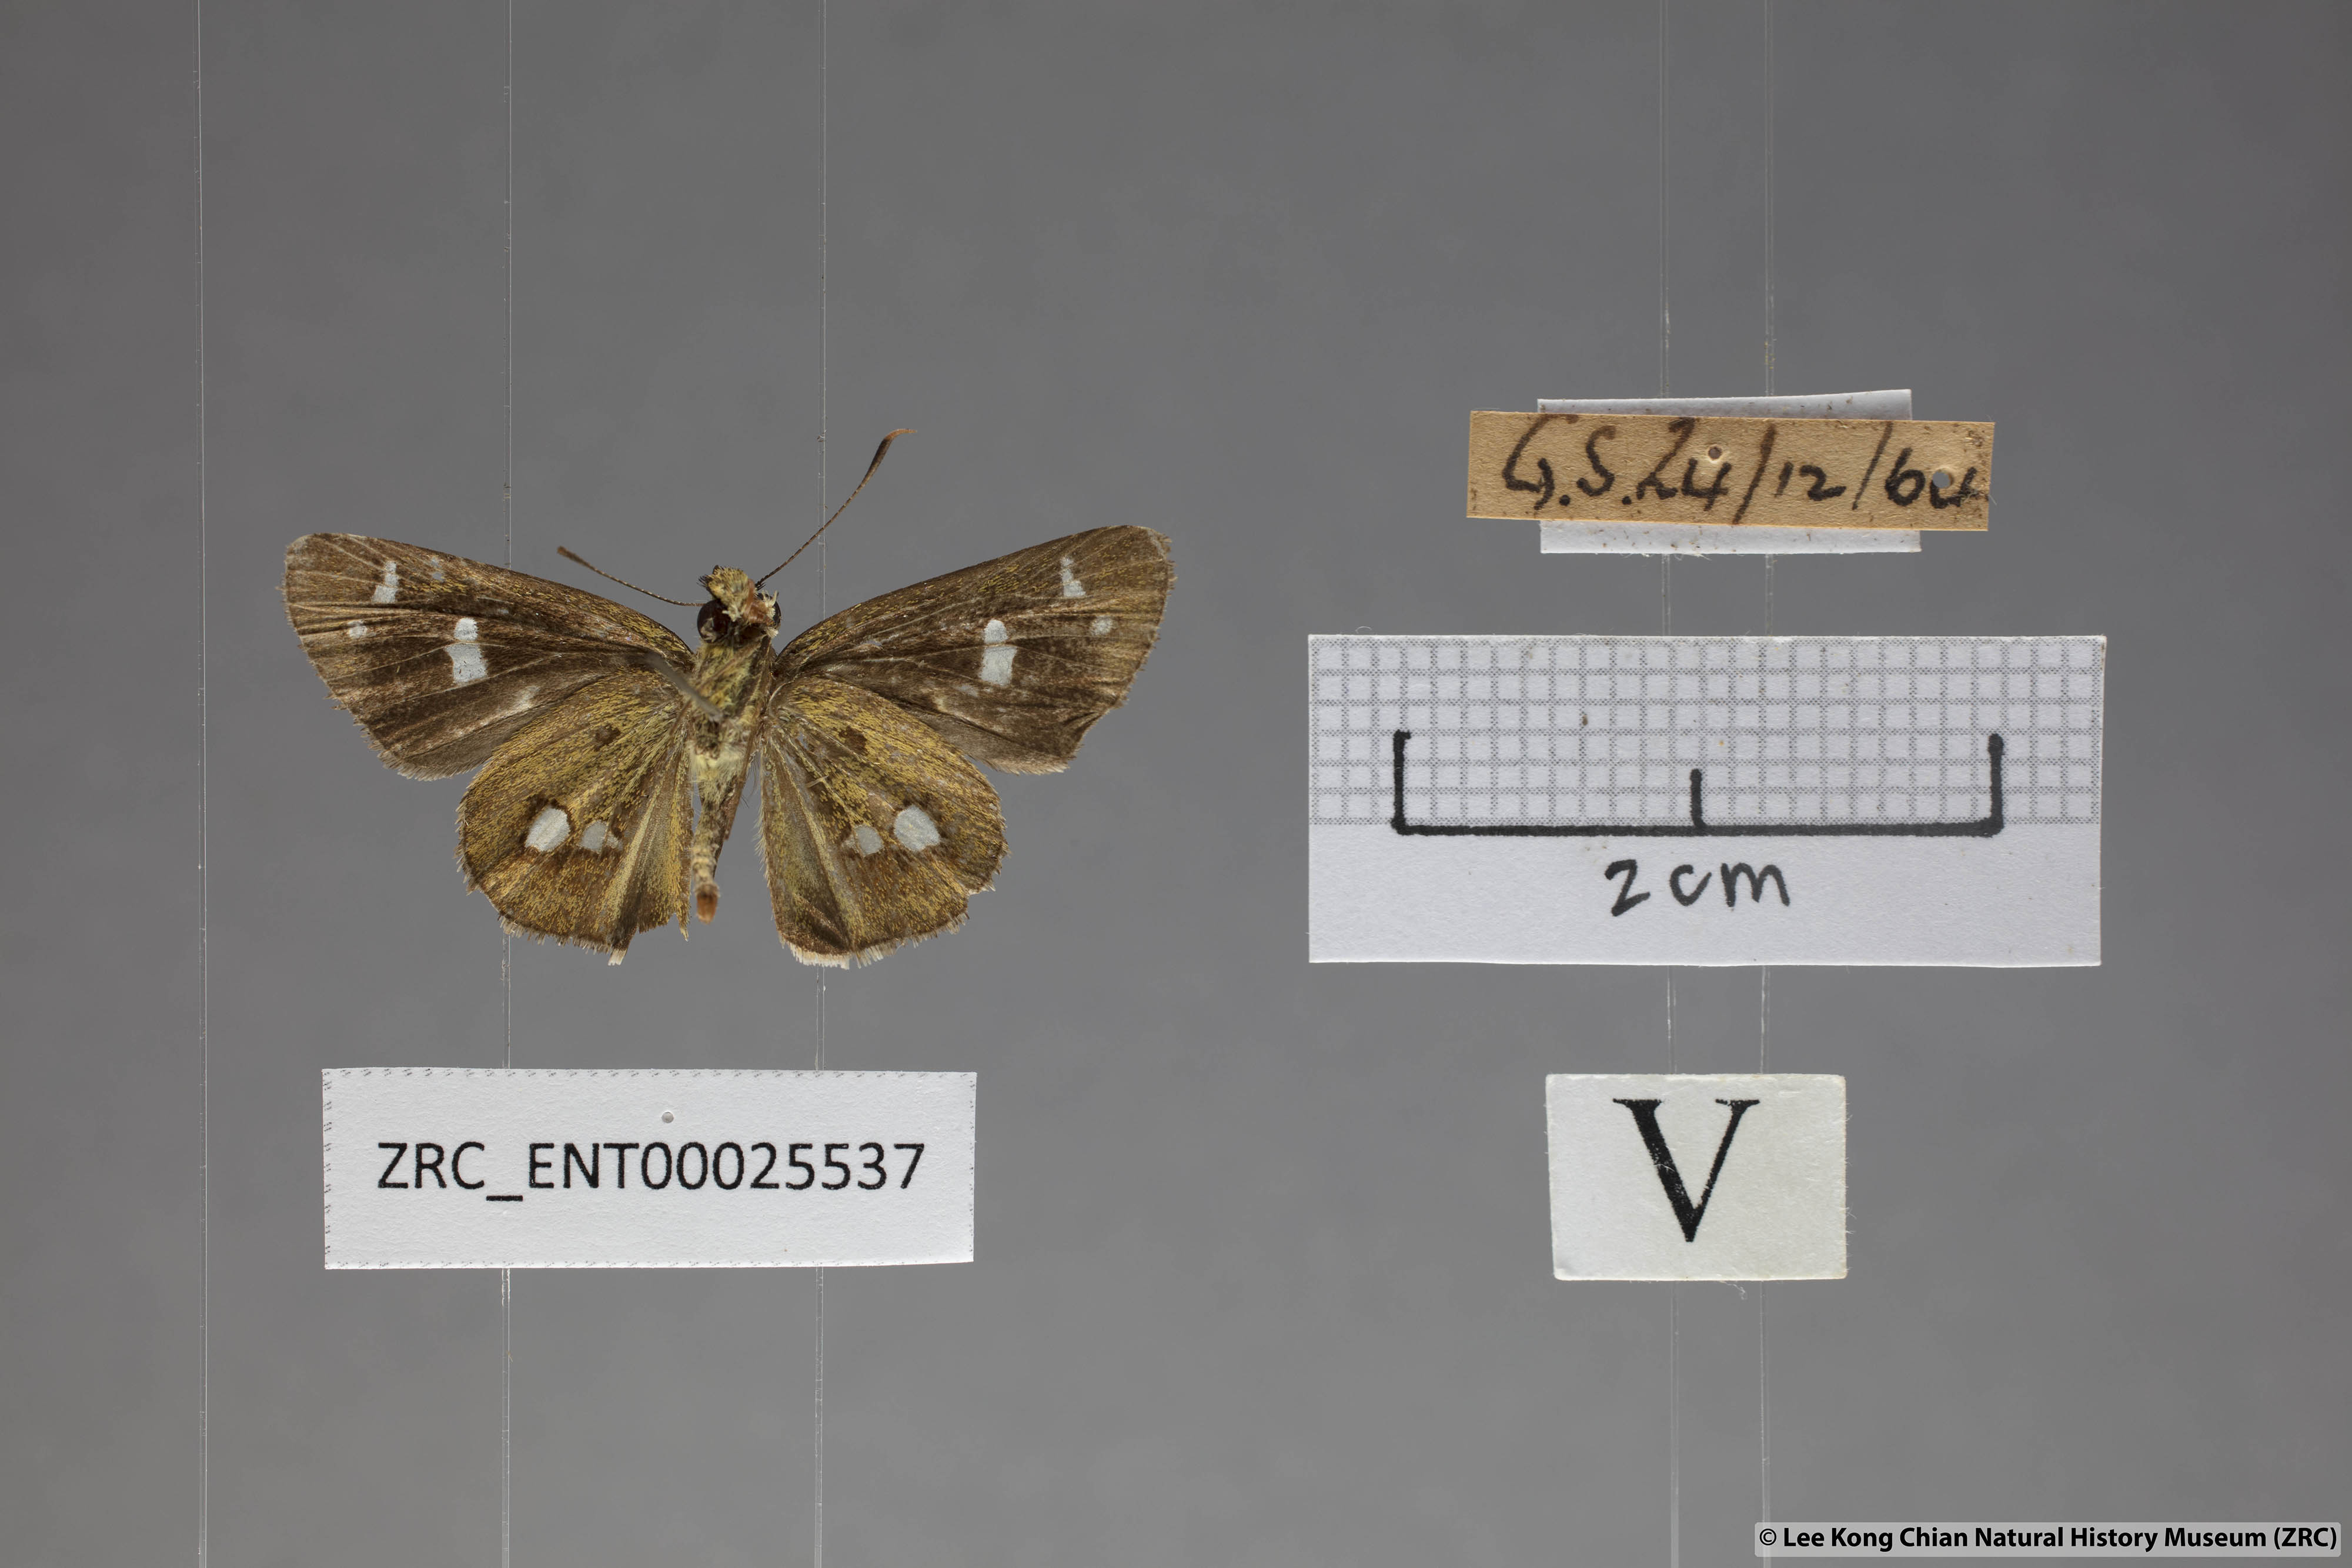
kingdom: Animalia
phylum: Arthropoda
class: Insecta
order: Lepidoptera
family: Hesperiidae
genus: Scobura
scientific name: Scobura isota
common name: Swinhoe's forest bob
